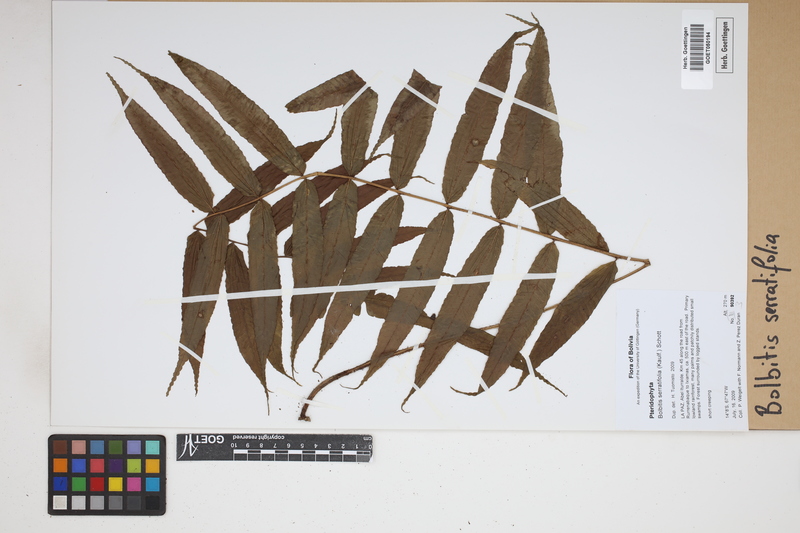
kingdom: Plantae
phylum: Tracheophyta
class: Polypodiopsida
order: Polypodiales
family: Dryopteridaceae
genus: Bolbitis
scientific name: Bolbitis serratifolia
